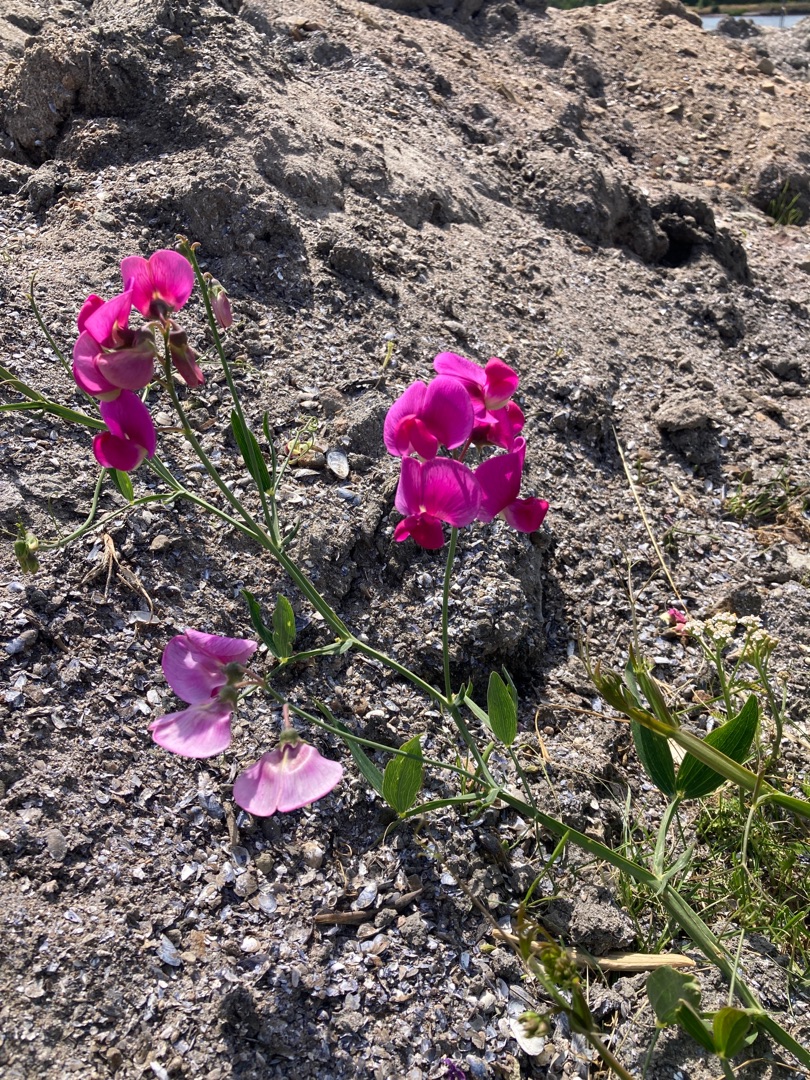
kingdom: Plantae
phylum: Tracheophyta
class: Magnoliopsida
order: Fabales
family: Fabaceae
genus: Lathyrus
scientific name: Lathyrus latifolius
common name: Flerårig ærteblomst
